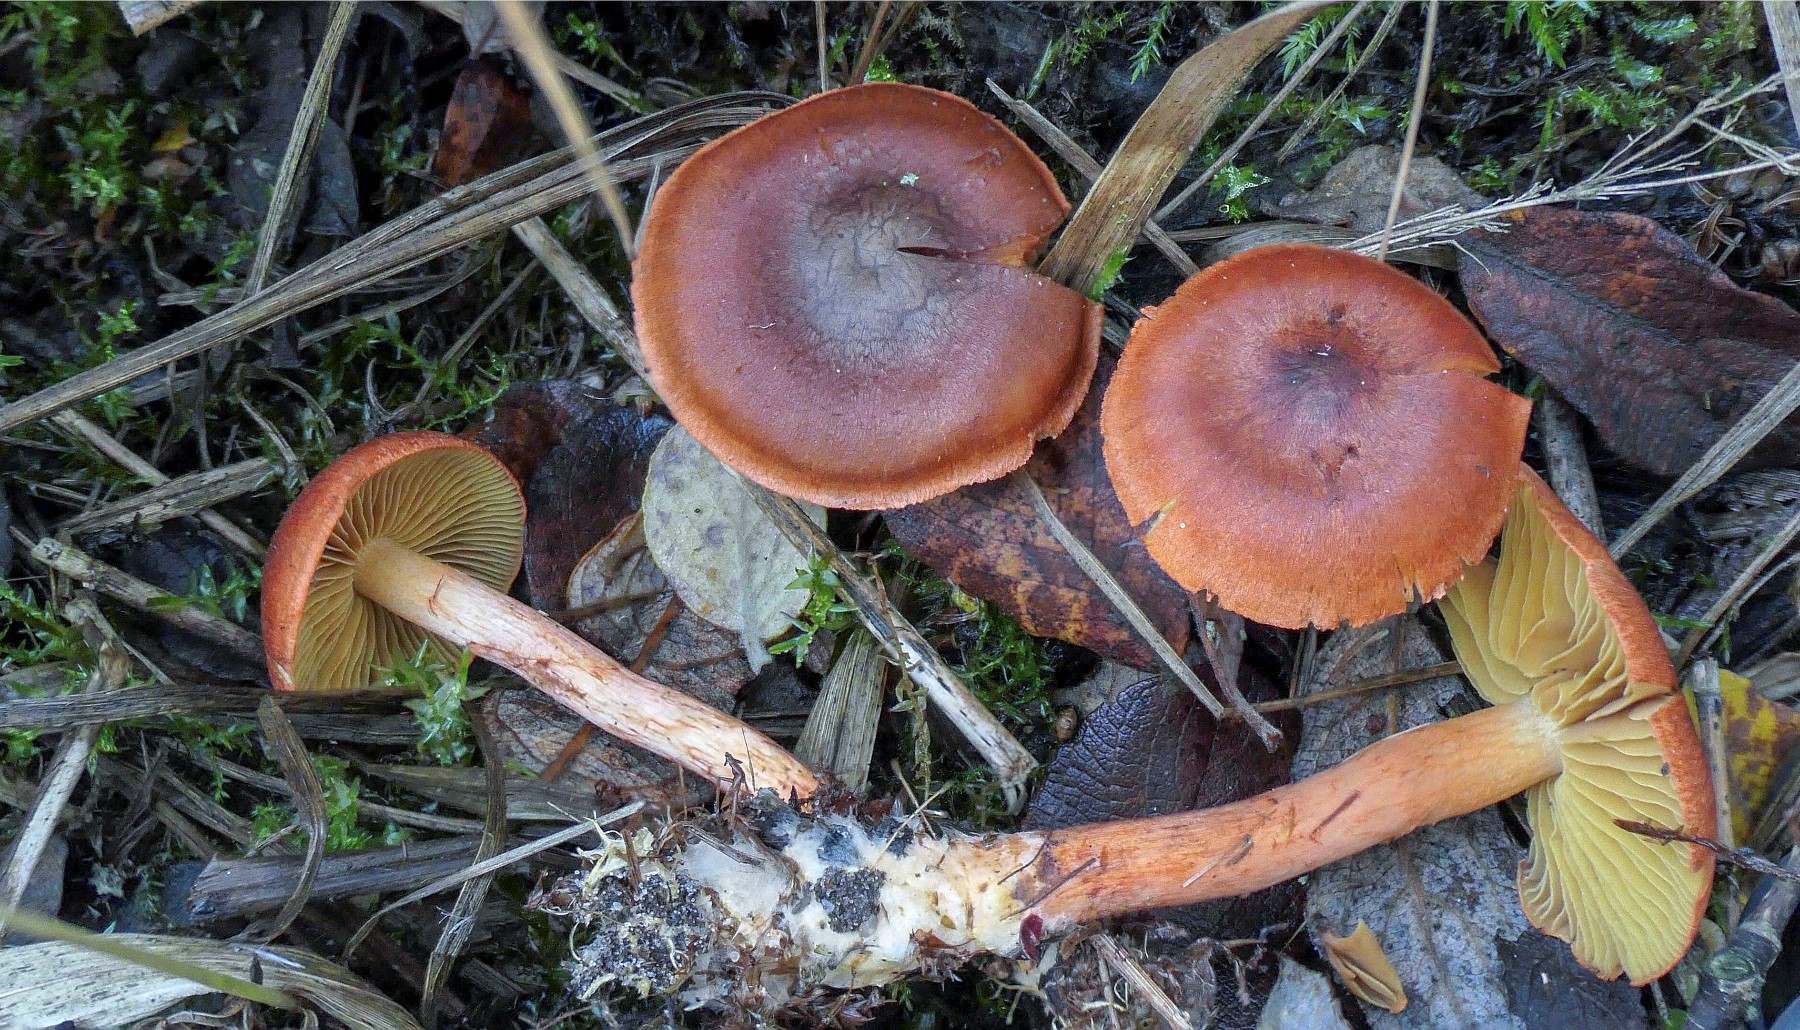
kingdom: Fungi
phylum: Basidiomycota
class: Agaricomycetes
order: Agaricales
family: Cortinariaceae
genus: Cortinarius
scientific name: Cortinarius uliginosus
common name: mose-slørhat
